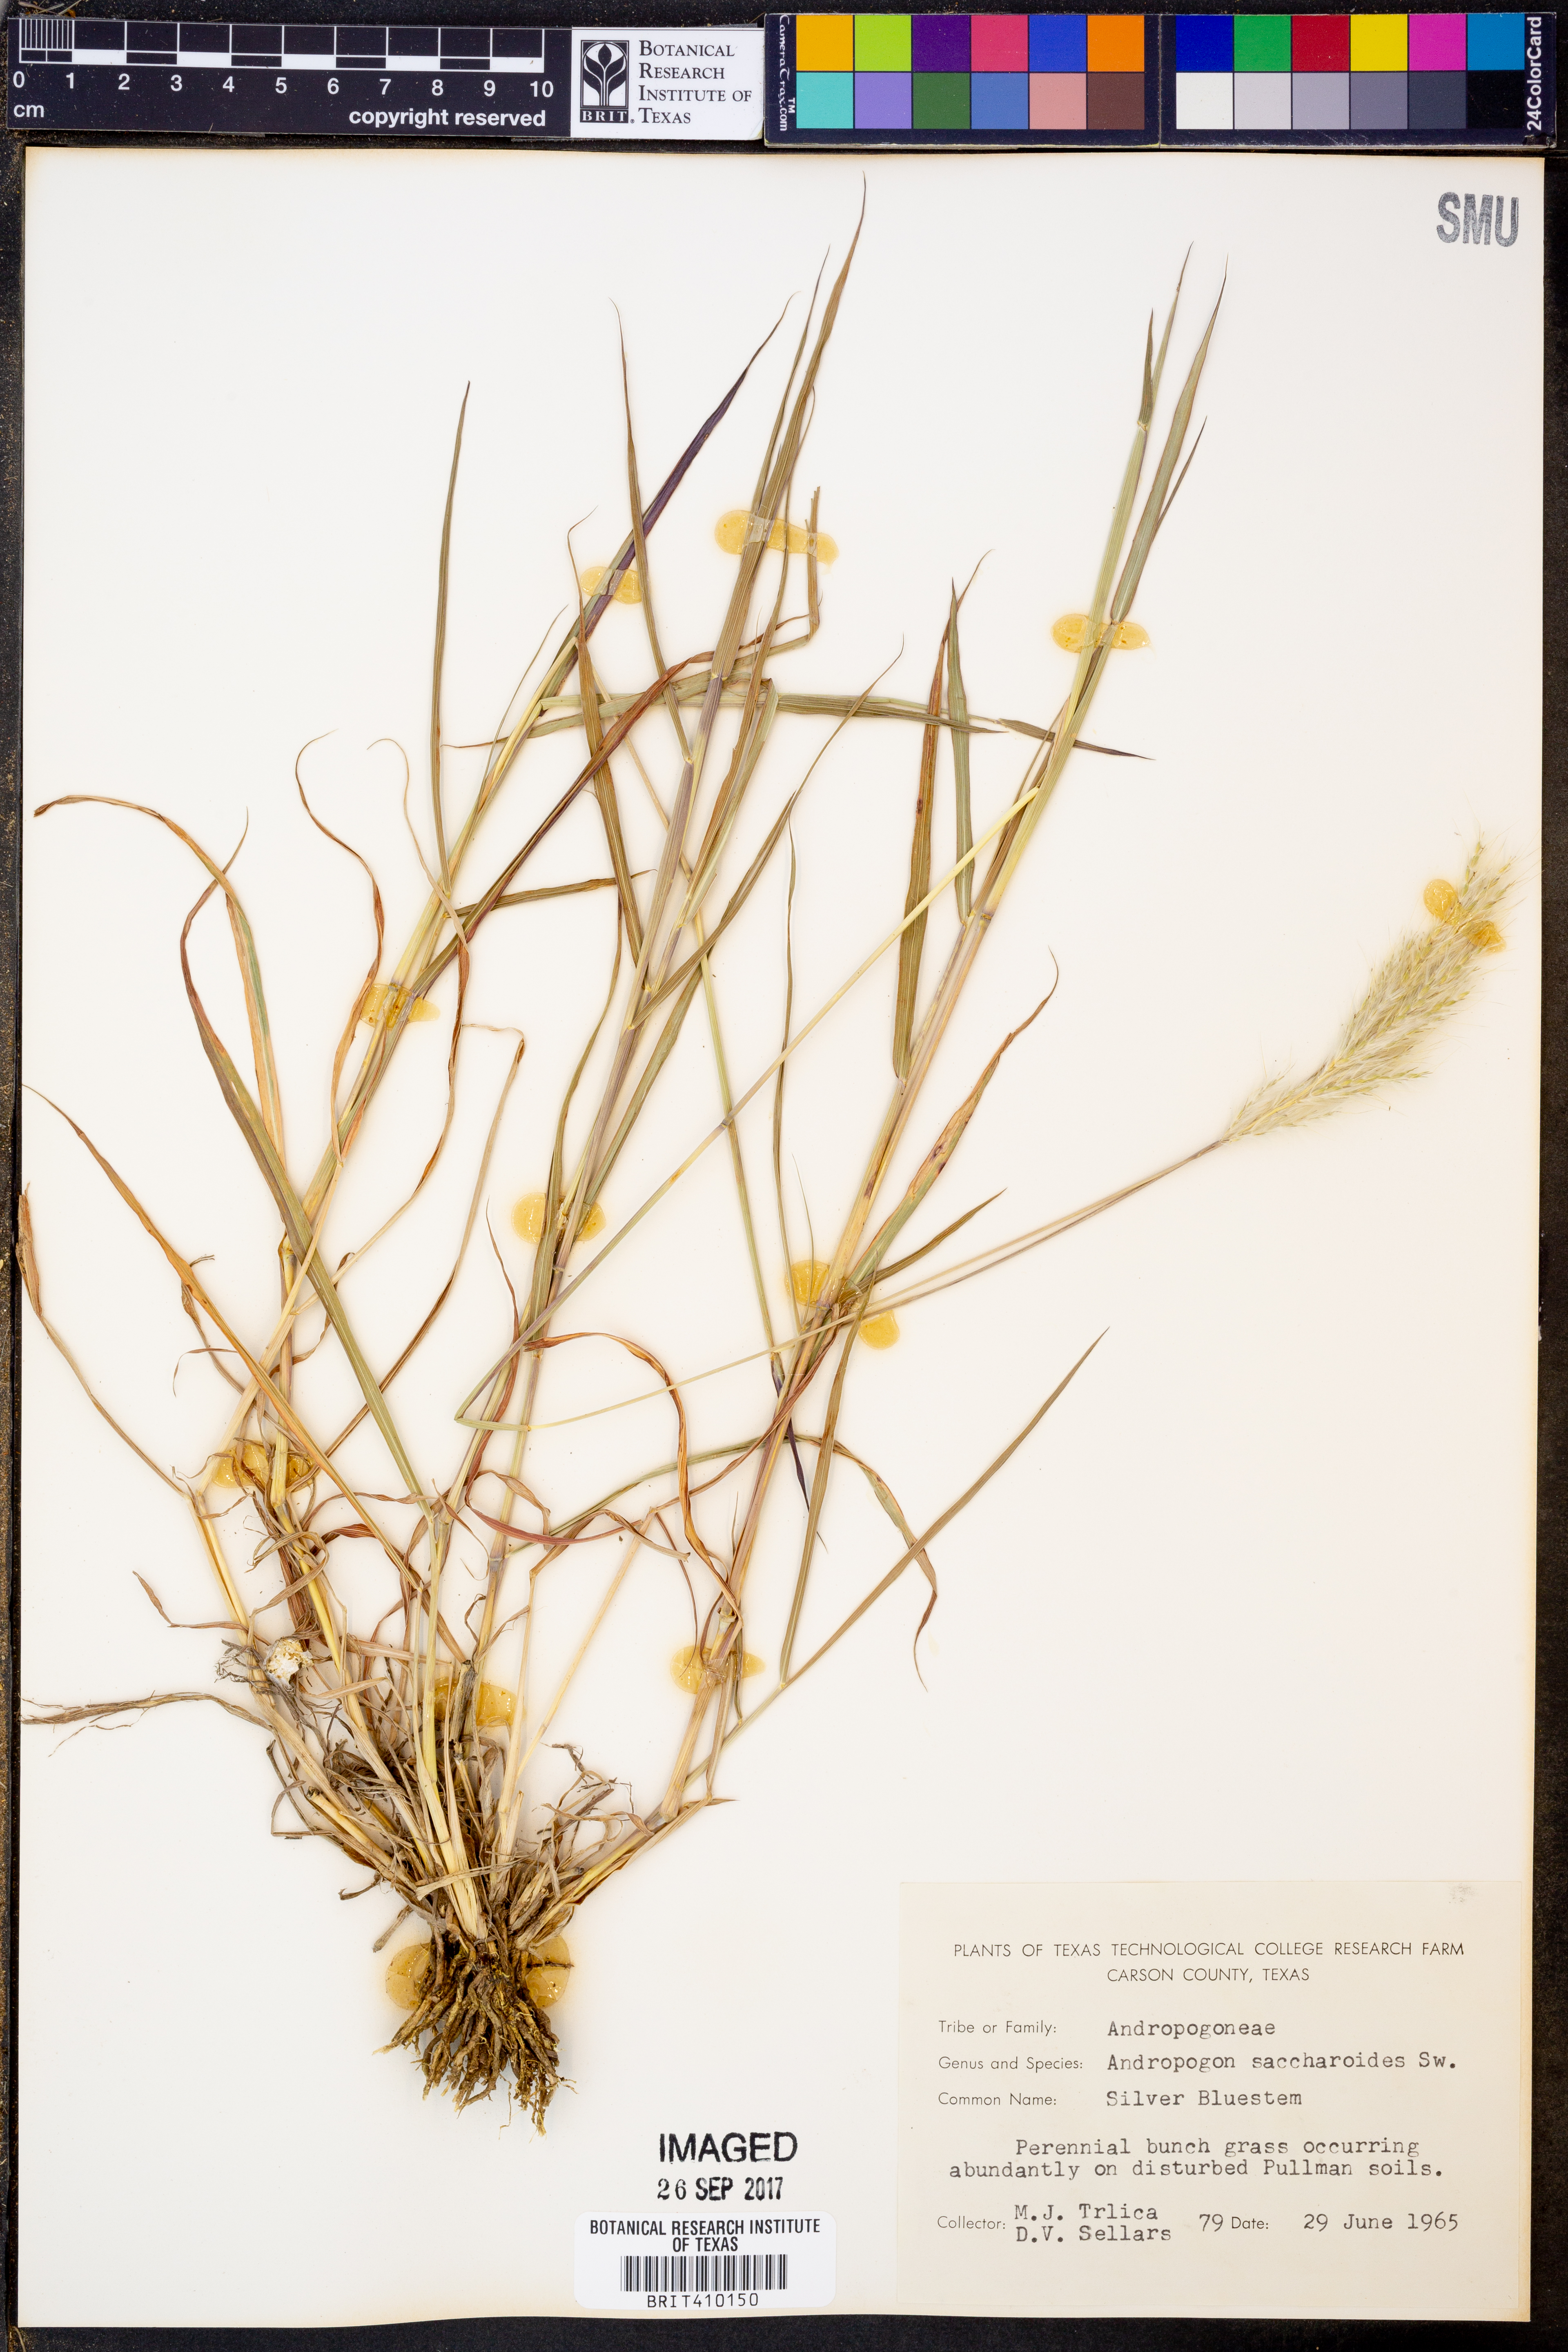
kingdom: Plantae
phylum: Tracheophyta
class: Liliopsida
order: Poales
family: Poaceae
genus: Bothriochloa
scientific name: Bothriochloa saccharoides
